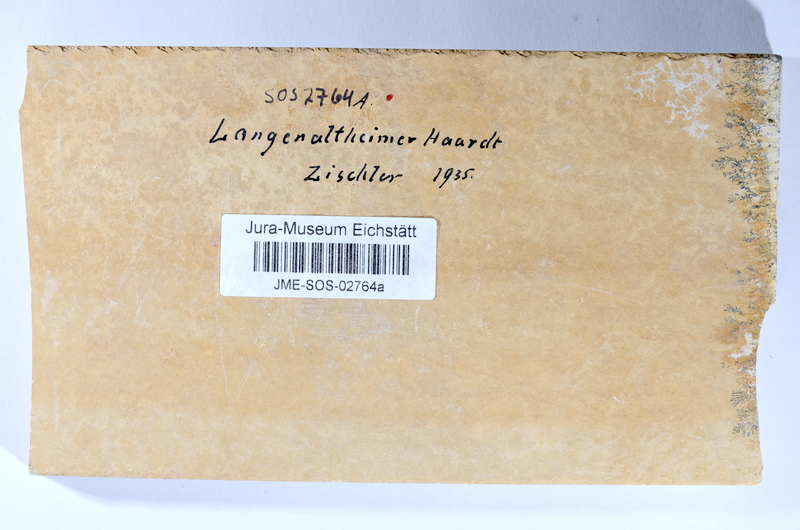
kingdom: Animalia
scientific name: Animalia
